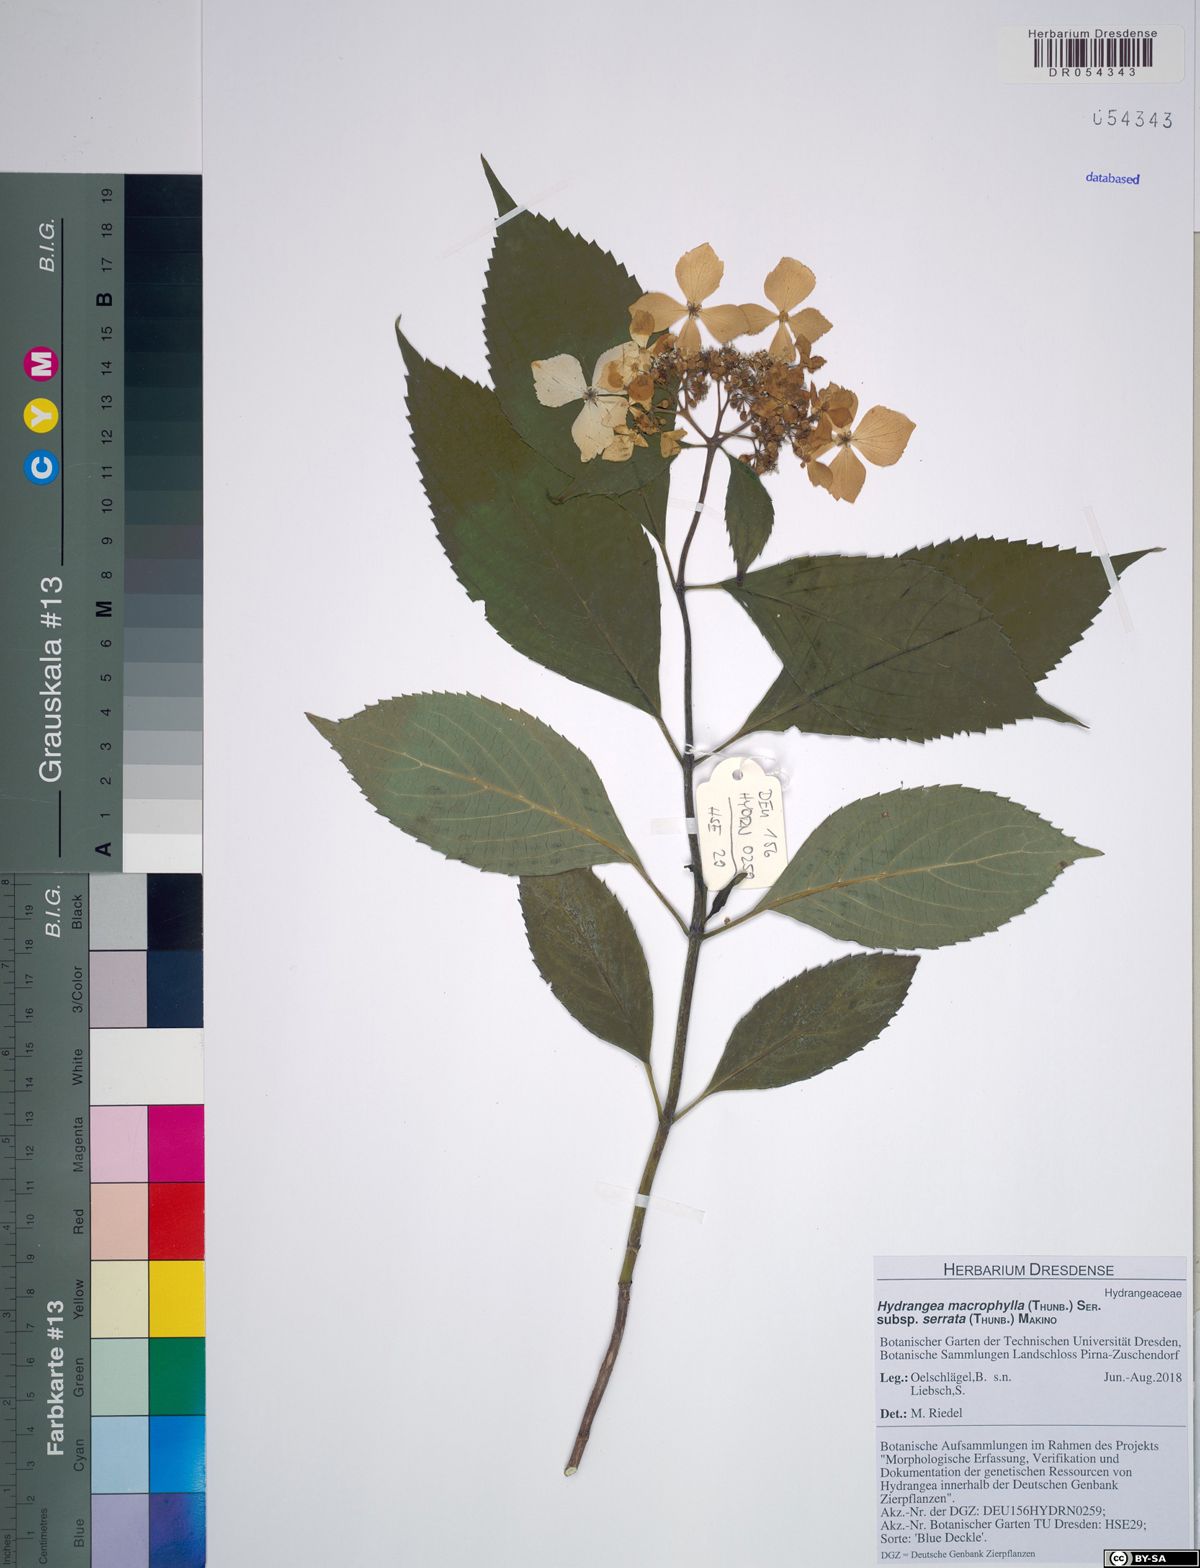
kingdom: Plantae
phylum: Tracheophyta
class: Magnoliopsida
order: Cornales
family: Hydrangeaceae
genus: Hydrangea
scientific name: Hydrangea serrata
